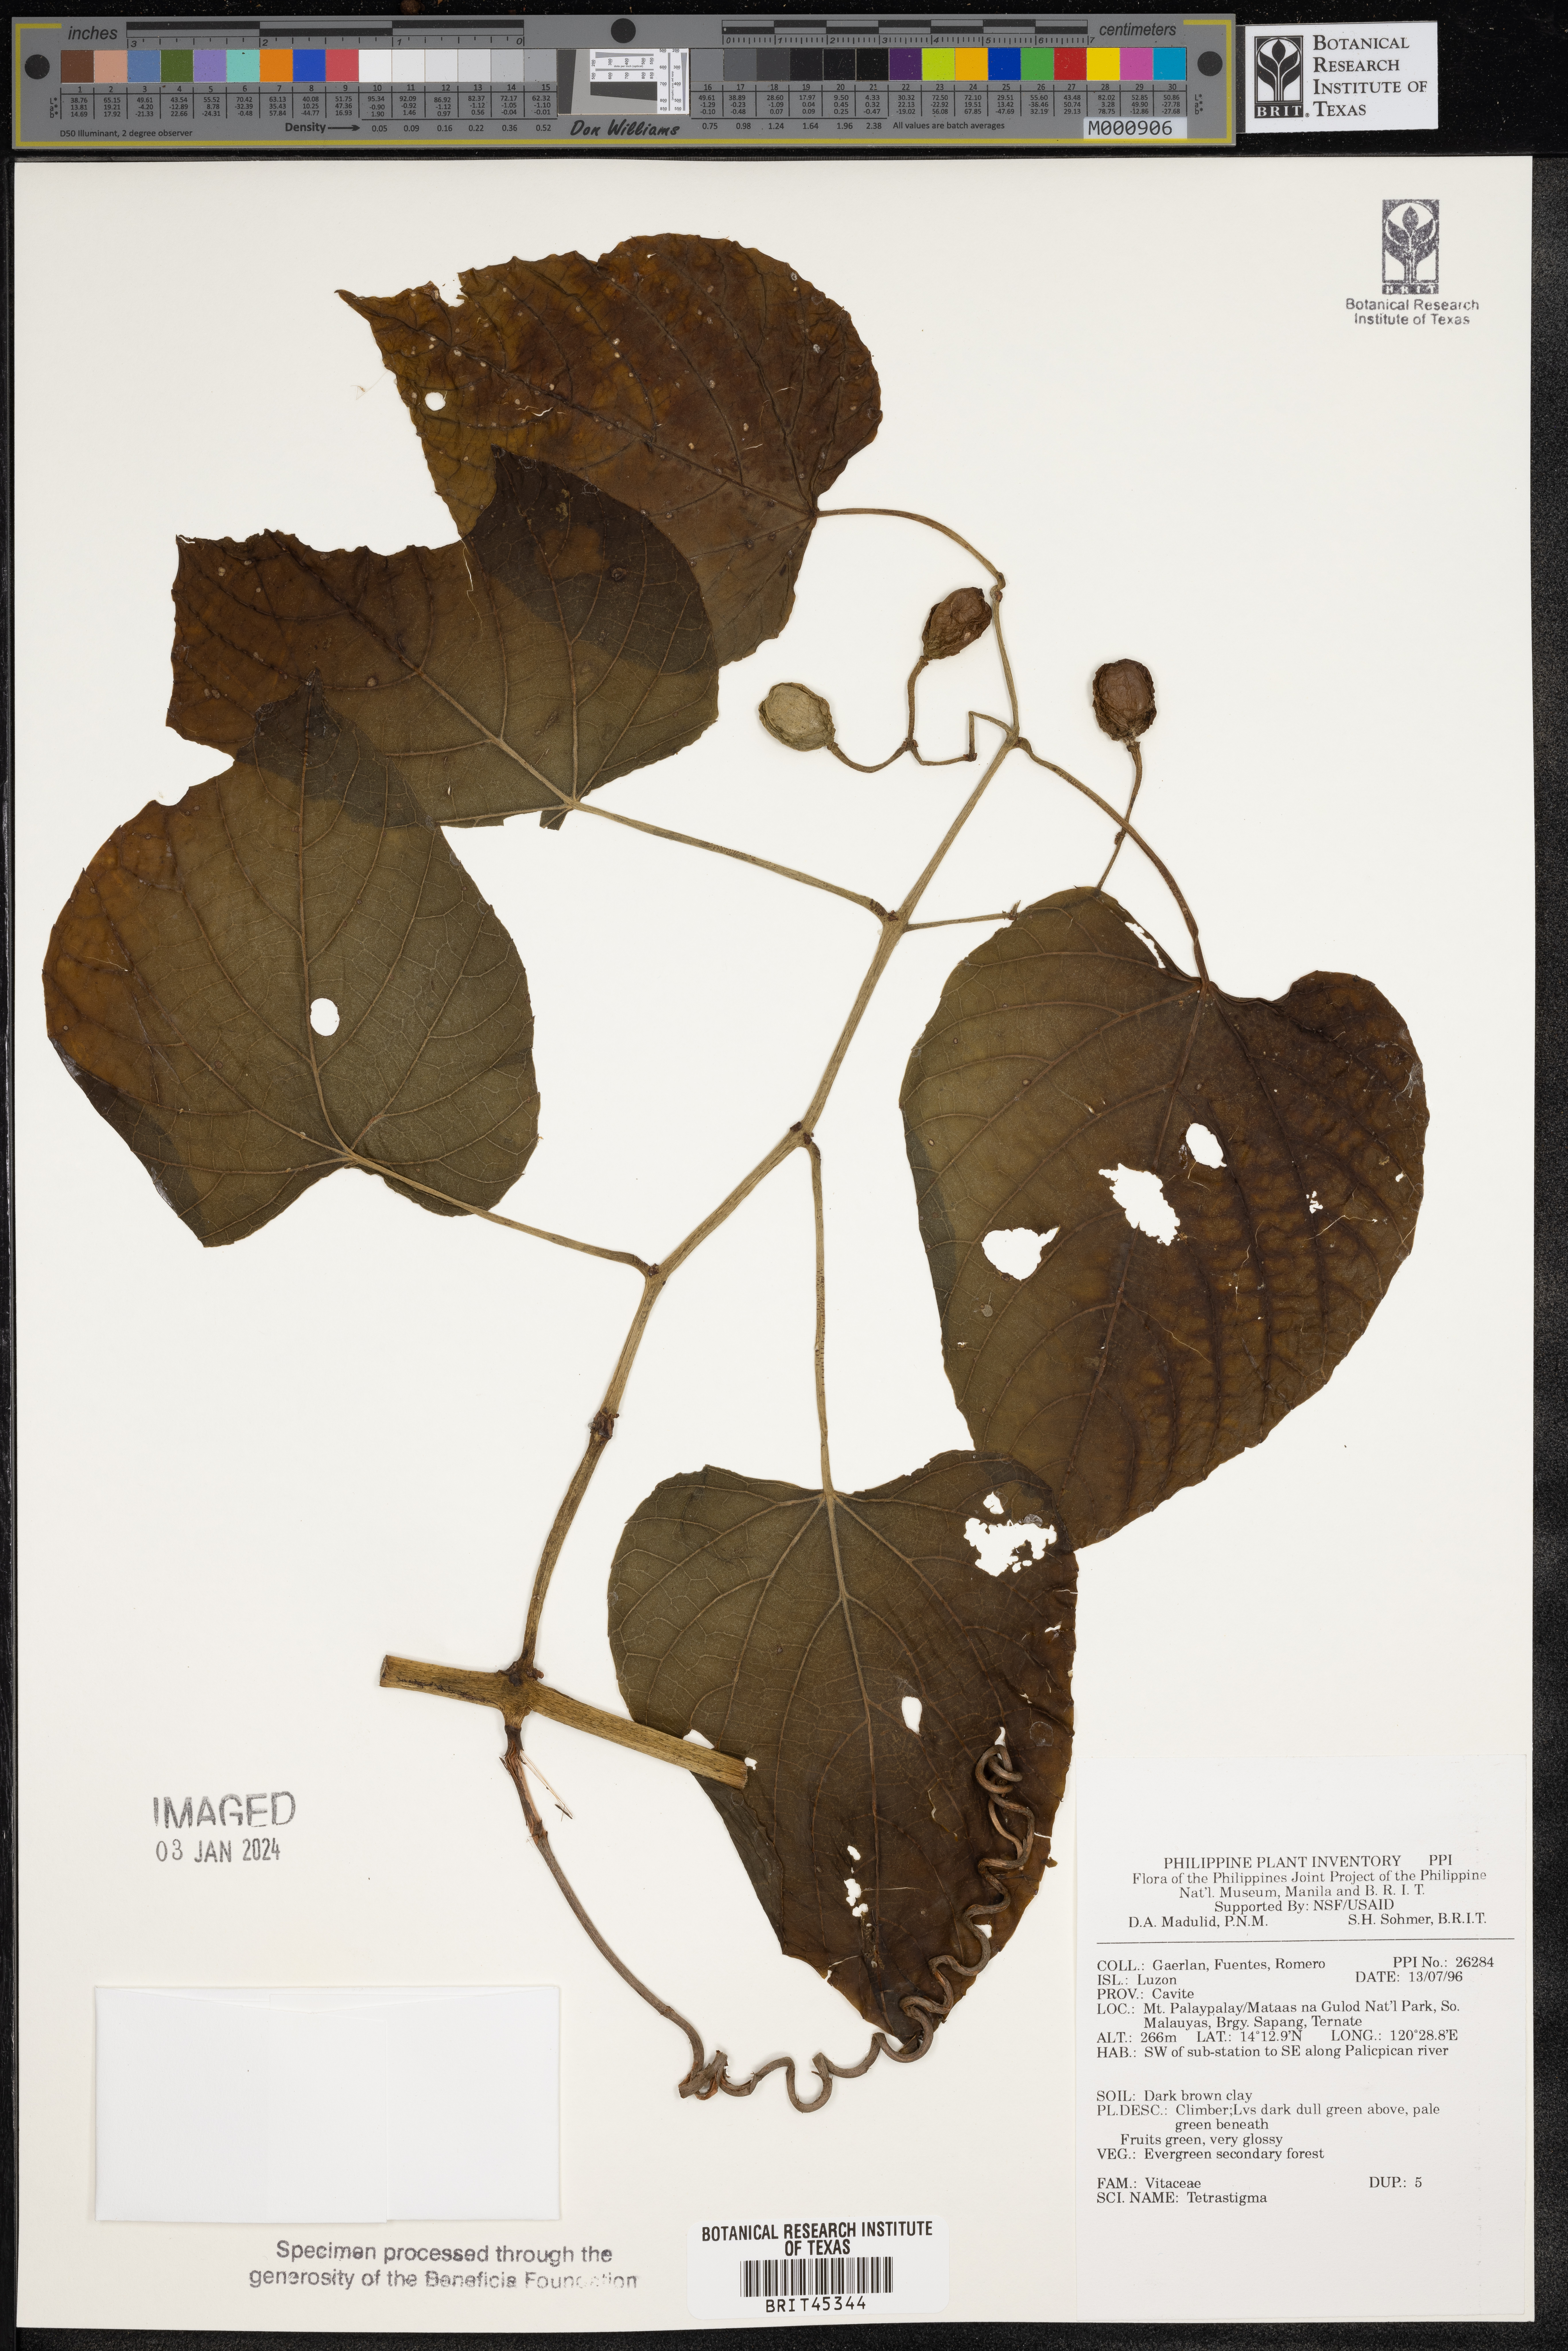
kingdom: Plantae
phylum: Tracheophyta
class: Magnoliopsida
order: Vitales
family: Vitaceae
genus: Tetrastigma
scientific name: Tetrastigma
